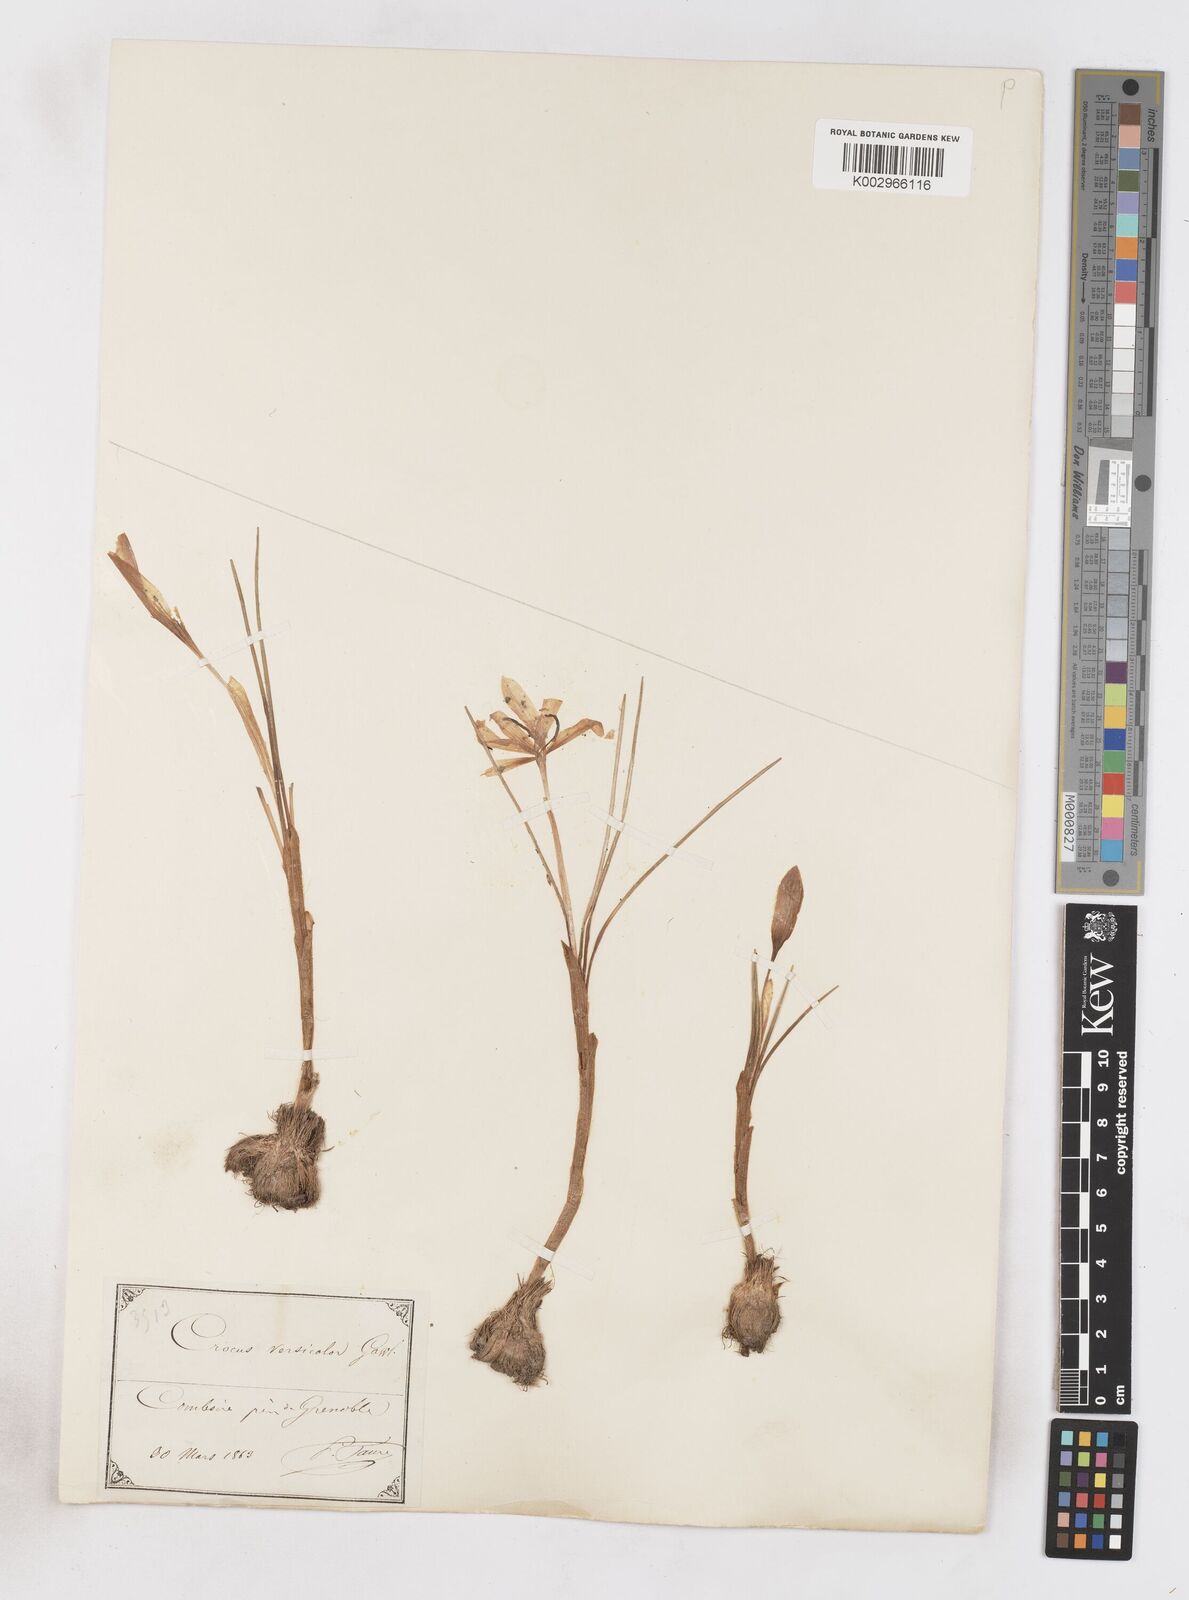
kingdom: Plantae
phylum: Tracheophyta
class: Liliopsida
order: Asparagales
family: Iridaceae
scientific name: Iridaceae
